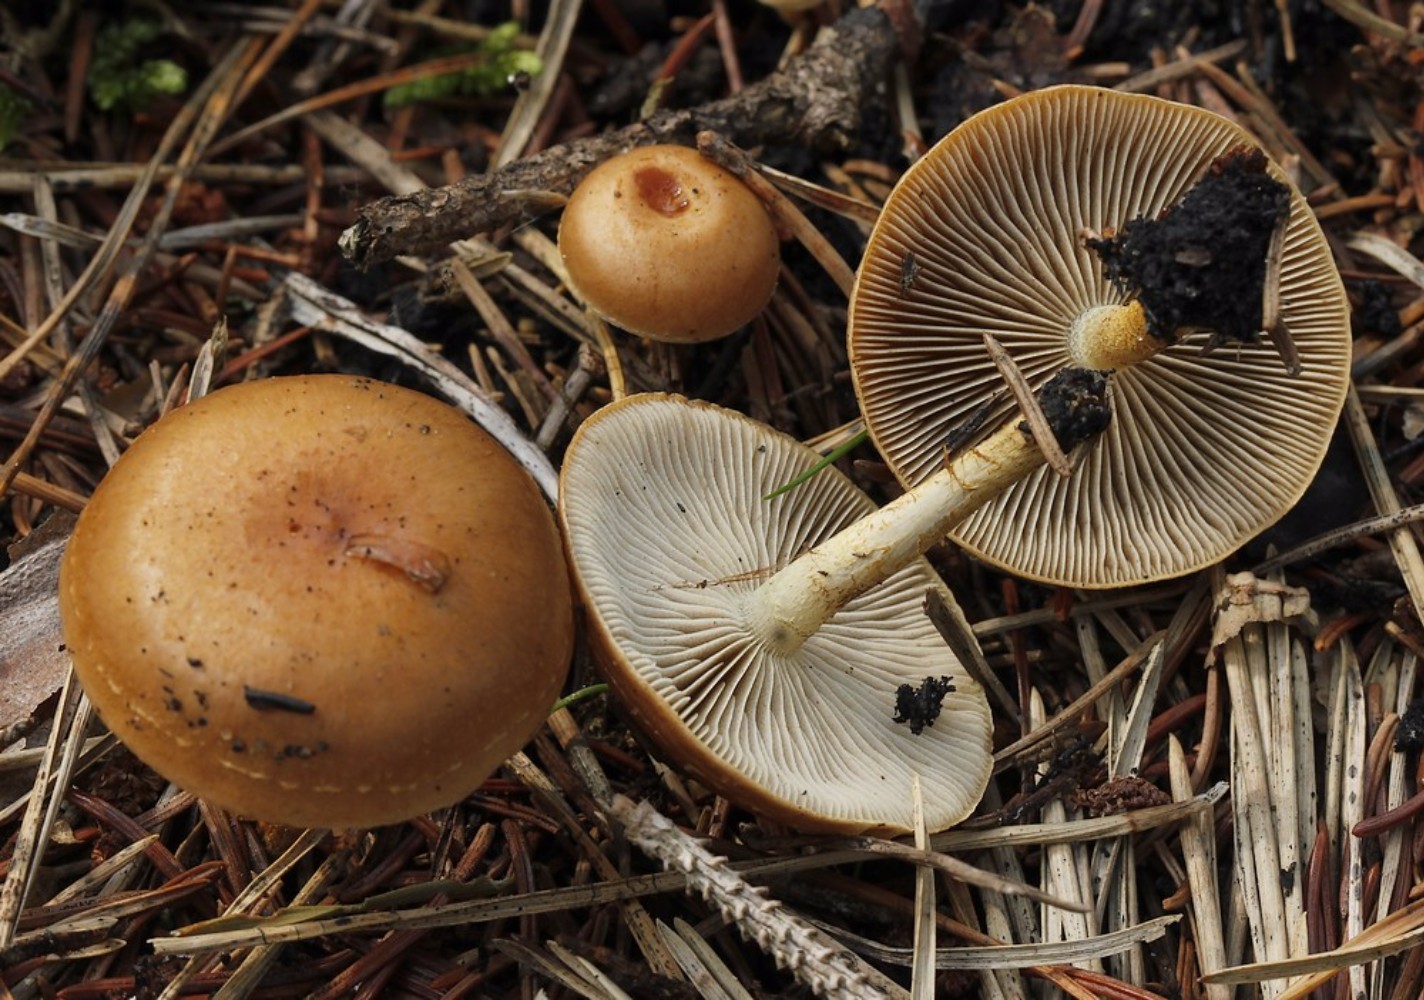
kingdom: Fungi
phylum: Basidiomycota
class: Agaricomycetes
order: Agaricales
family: Strophariaceae
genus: Pholiota
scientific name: Pholiota
